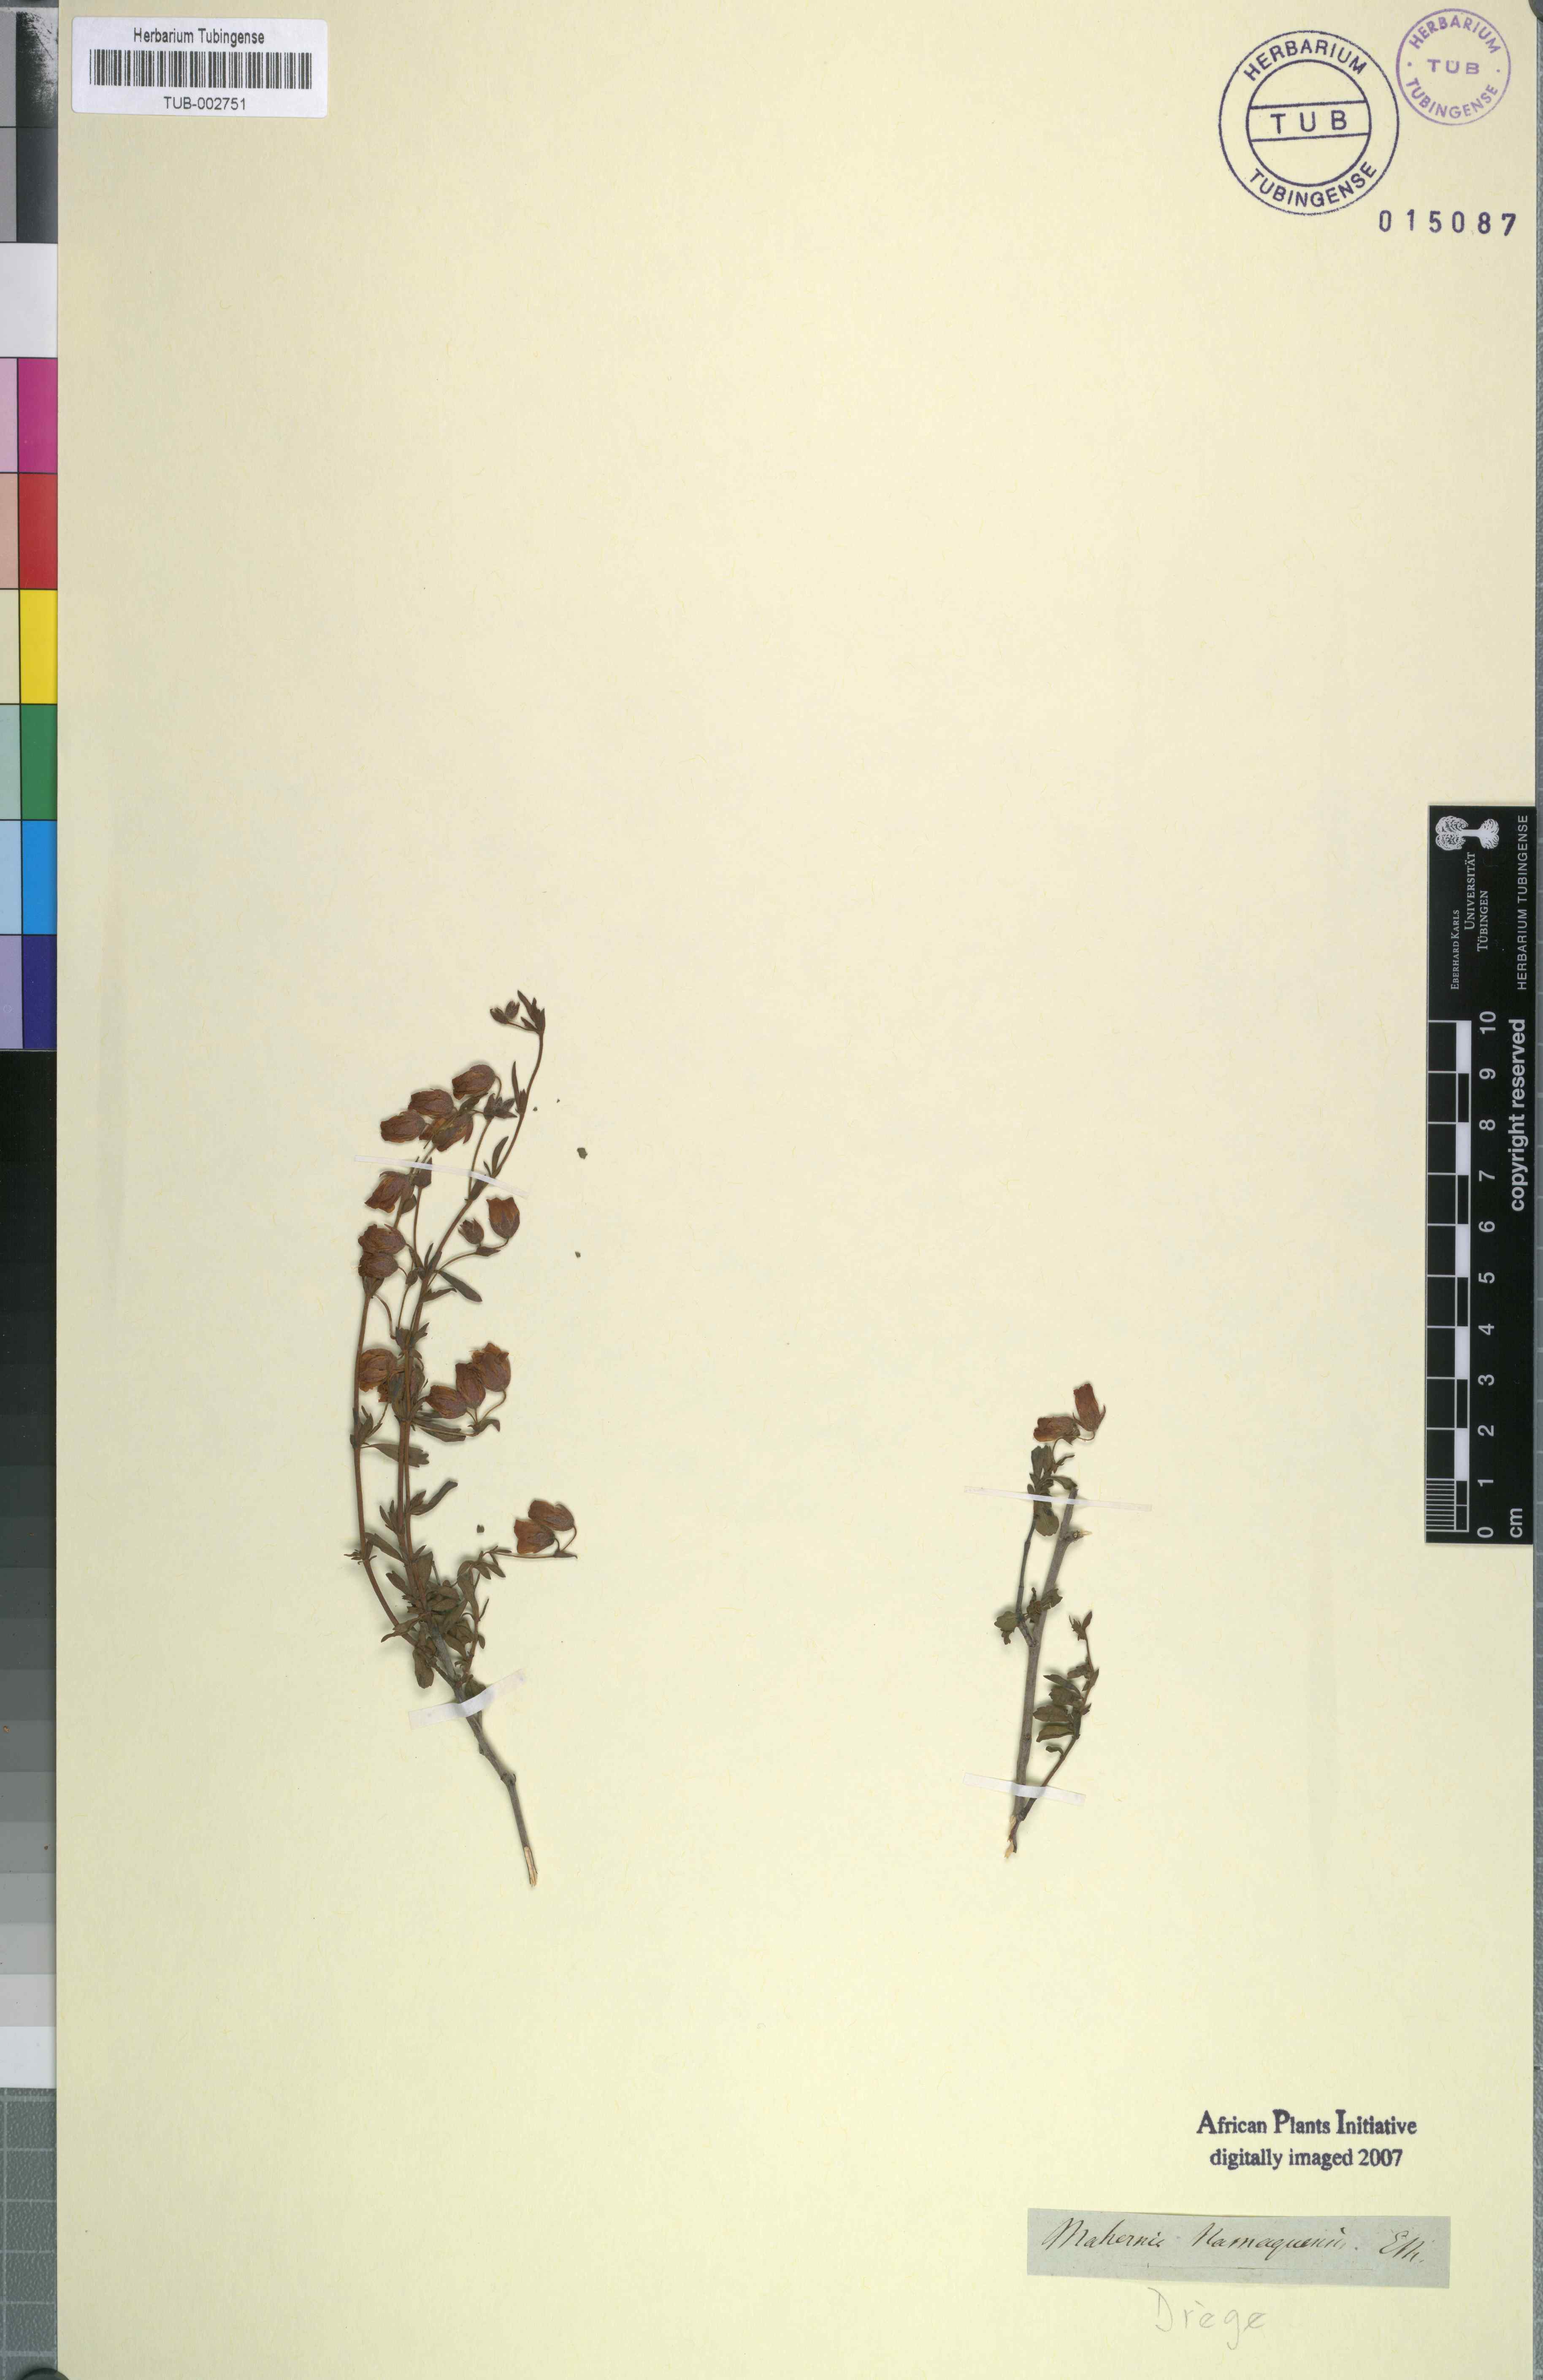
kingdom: Plantae
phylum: Tracheophyta
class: Magnoliopsida
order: Malvales
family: Malvaceae
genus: Hermannia
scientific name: Hermannia heterophylla
